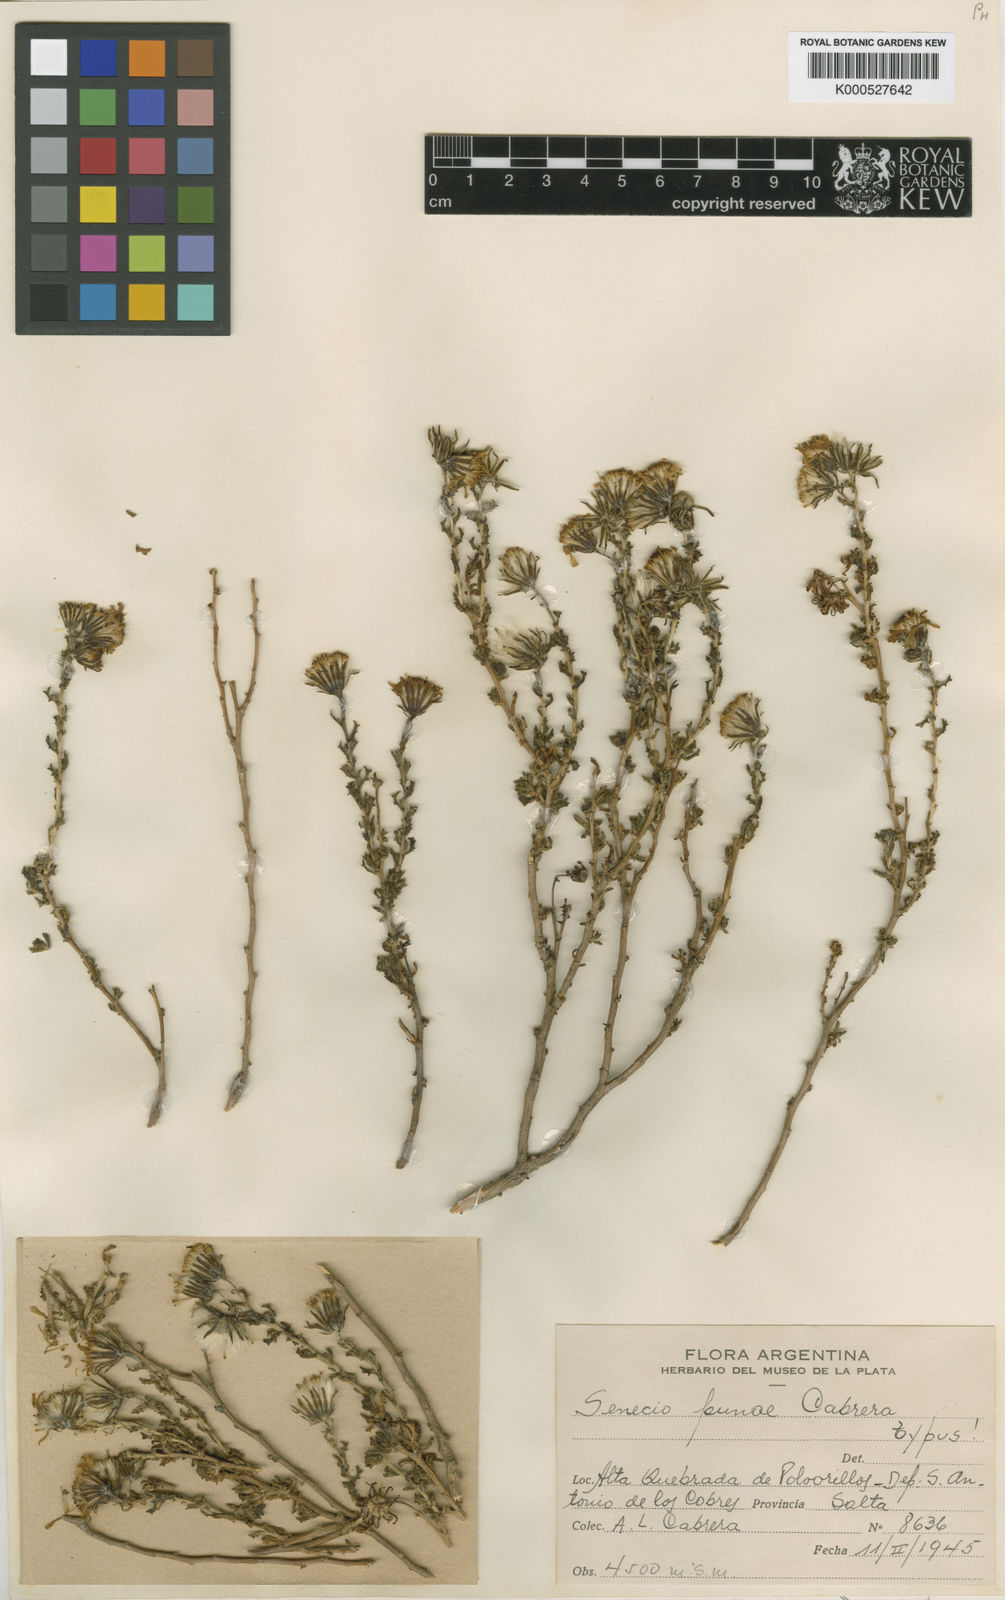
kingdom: Plantae
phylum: Tracheophyta
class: Magnoliopsida
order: Asterales
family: Asteraceae
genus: Senecio
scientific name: Senecio punae
